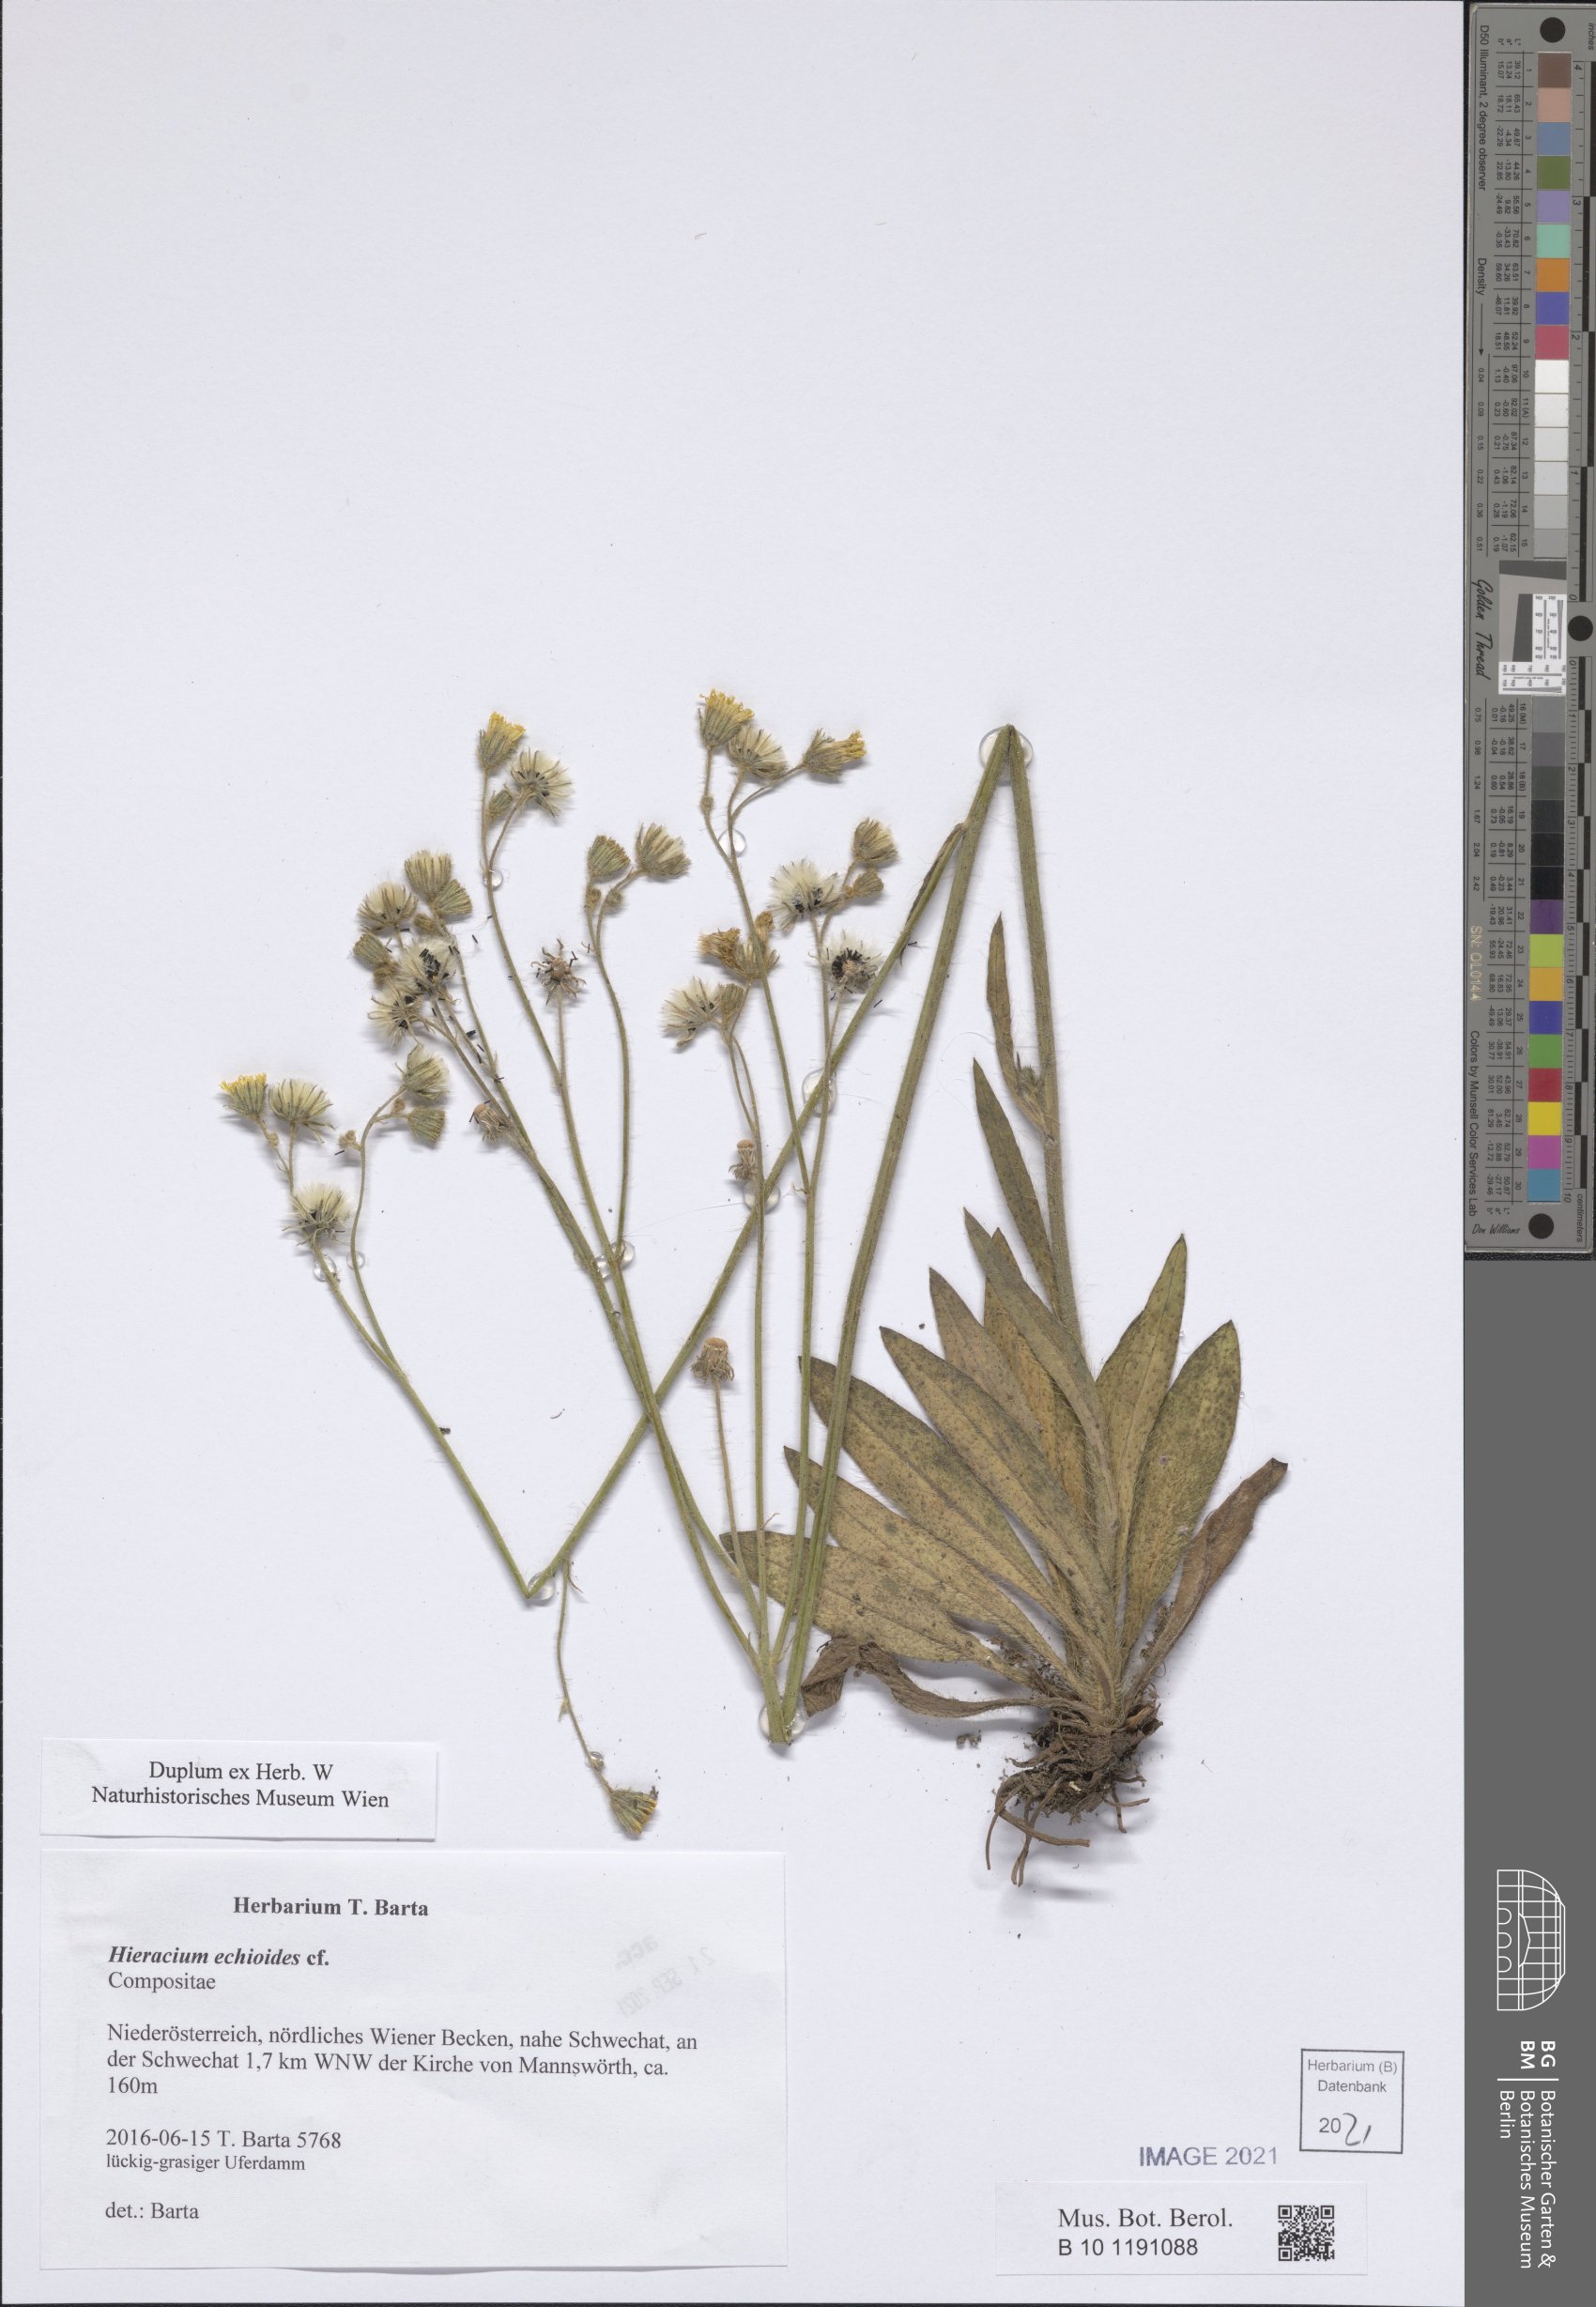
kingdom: Plantae
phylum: Tracheophyta
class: Magnoliopsida
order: Asterales
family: Asteraceae
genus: Pilosella
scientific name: Pilosella echioides
